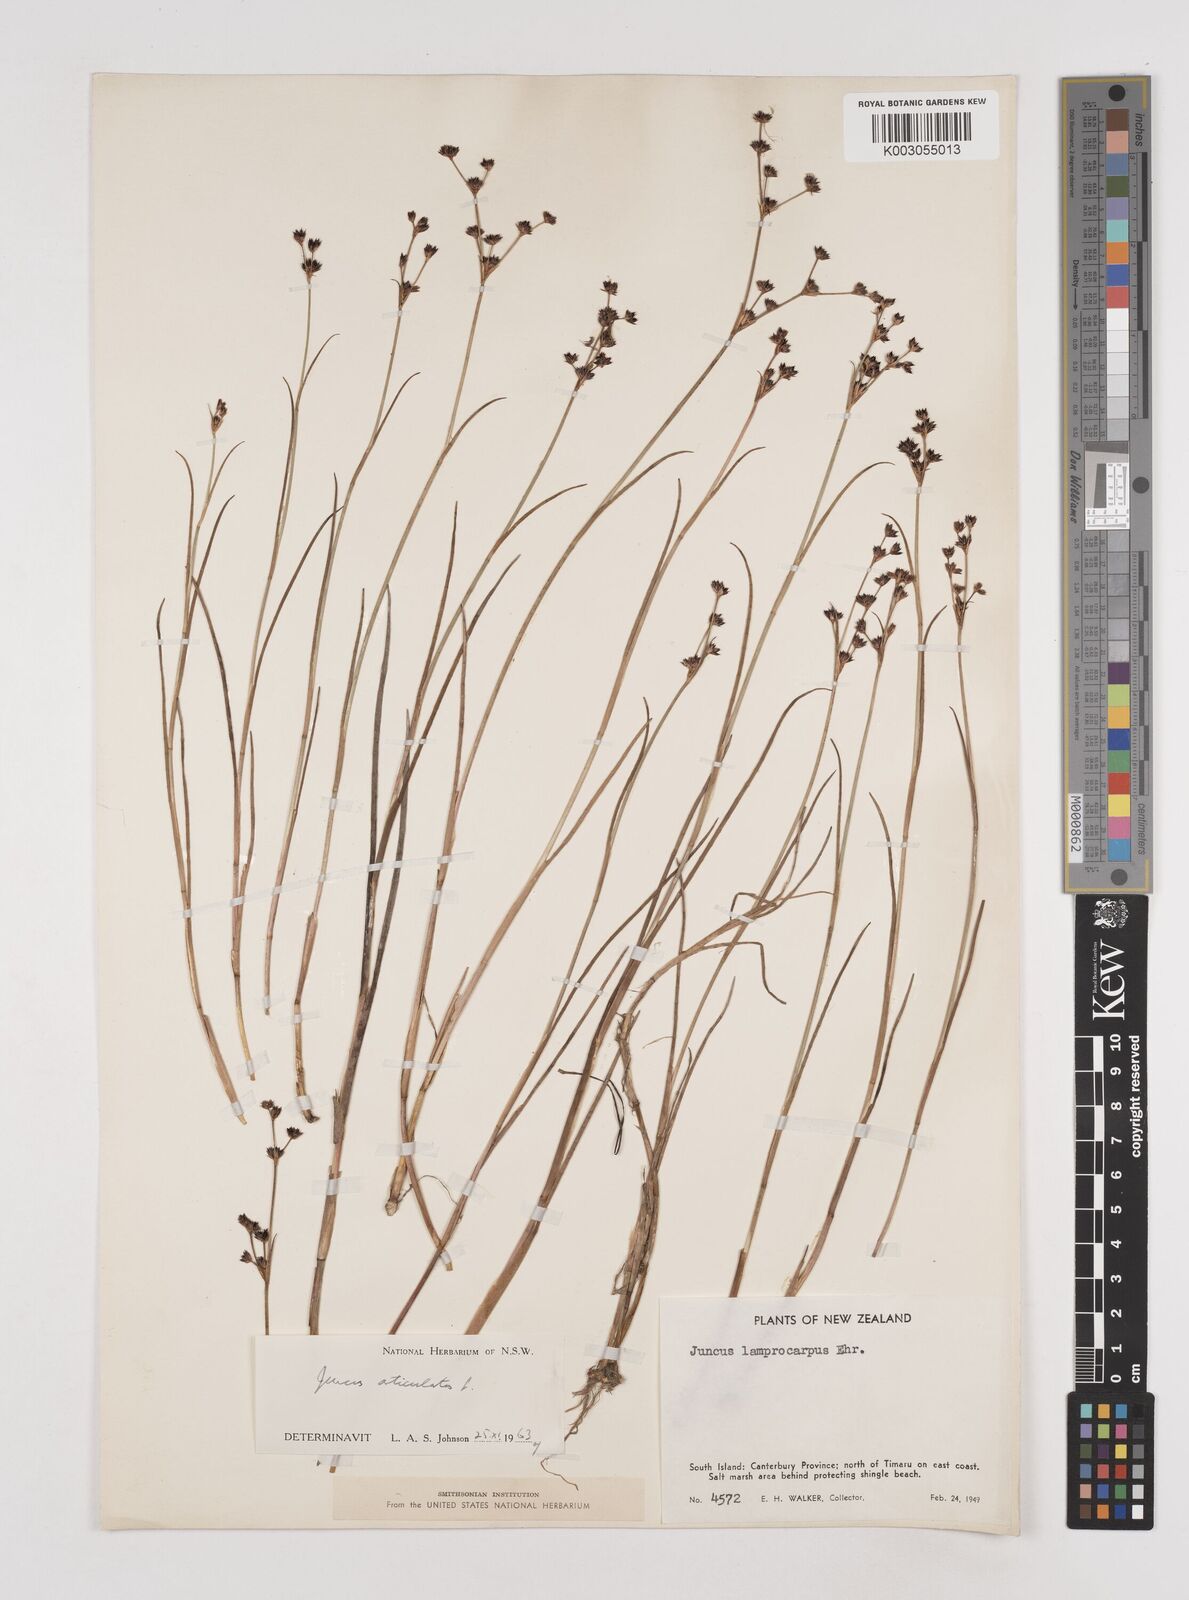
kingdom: Plantae
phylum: Tracheophyta
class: Liliopsida
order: Poales
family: Juncaceae
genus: Juncus
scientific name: Juncus articulatus
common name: Jointed rush
